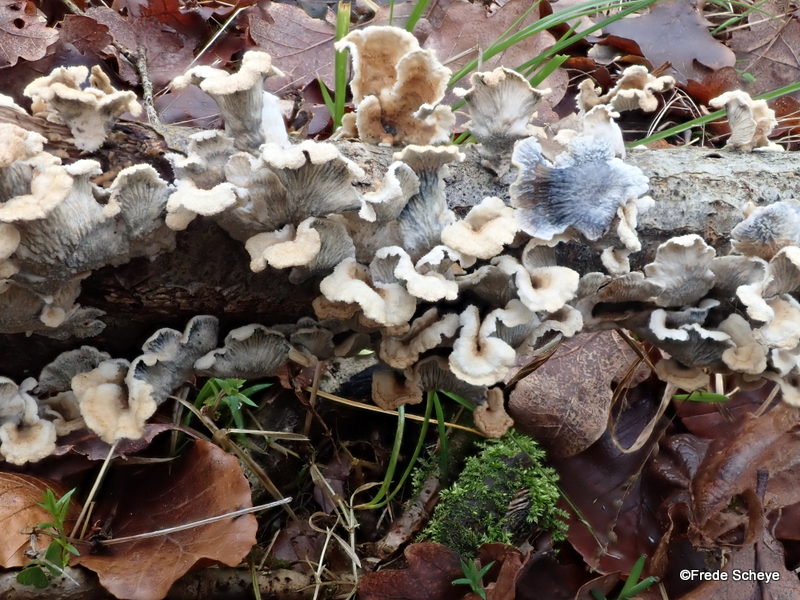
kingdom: Fungi
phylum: Basidiomycota
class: Agaricomycetes
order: Amylocorticiales
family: Amylocorticiaceae
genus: Plicaturopsis
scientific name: Plicaturopsis crispa
